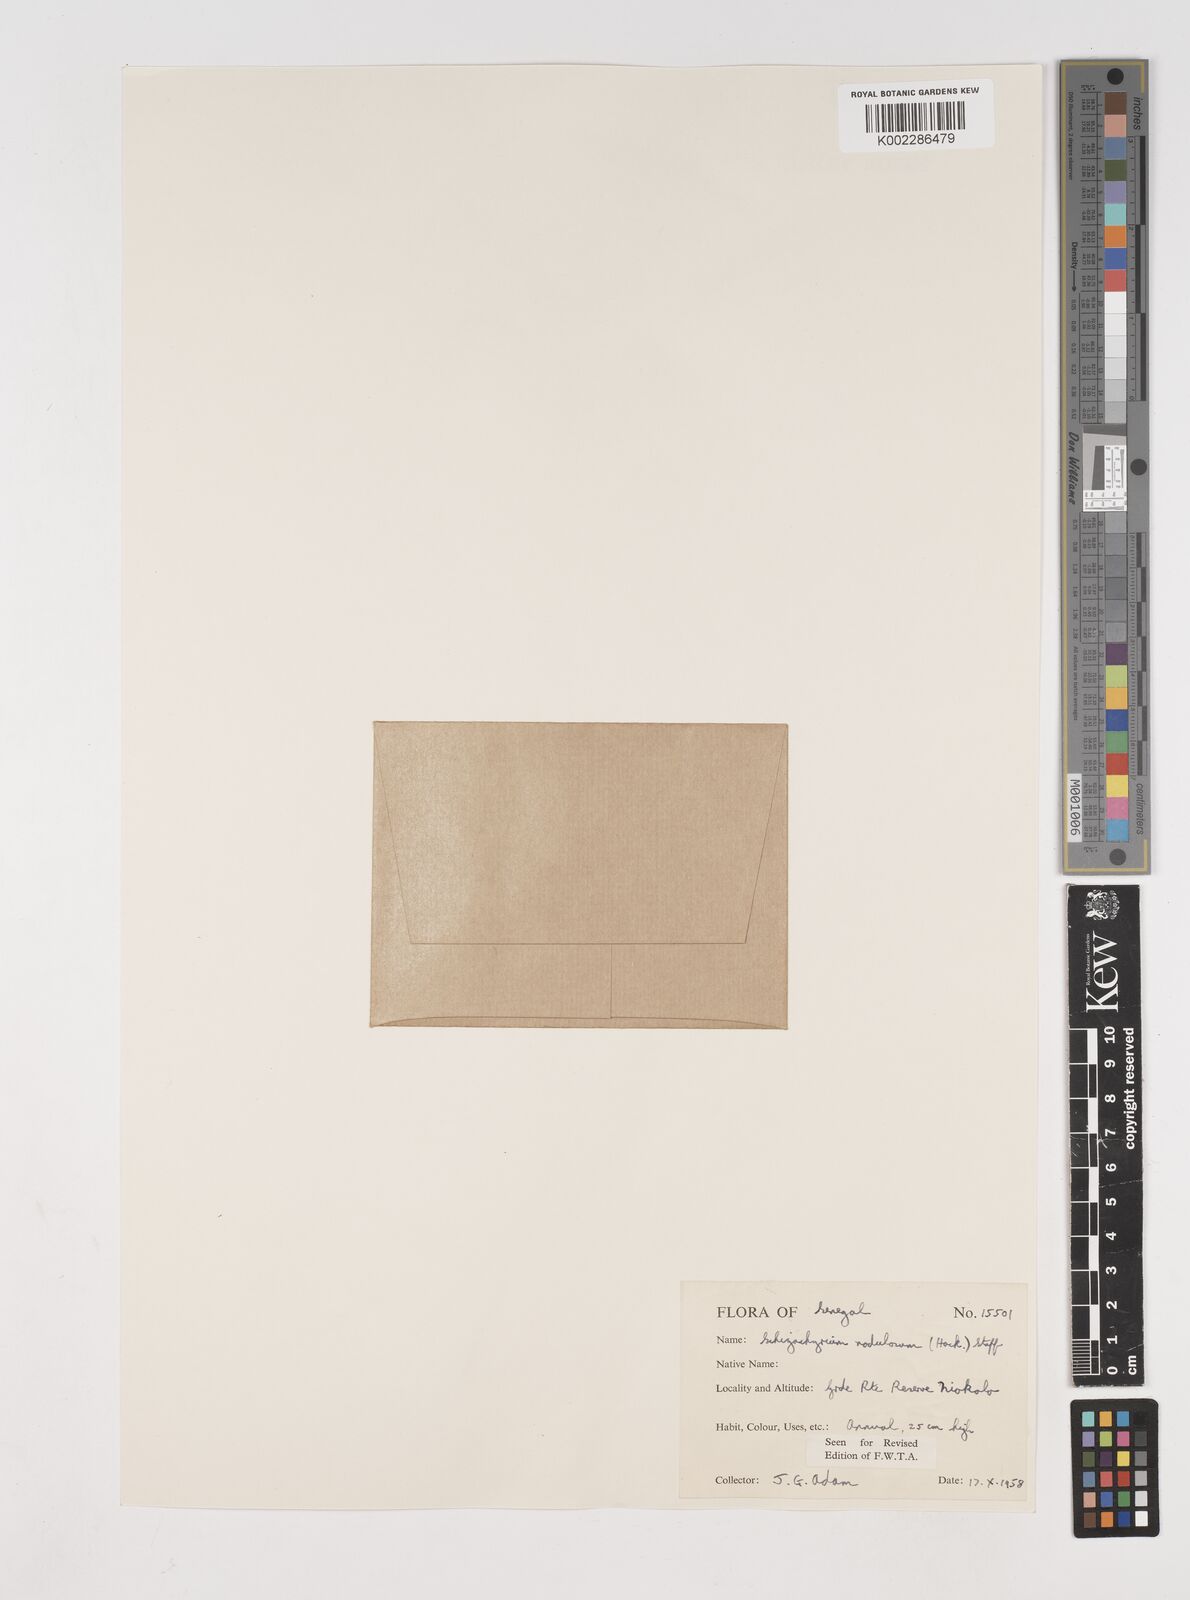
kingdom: Plantae
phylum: Tracheophyta
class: Liliopsida
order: Poales
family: Poaceae
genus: Schizachyrium
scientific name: Schizachyrium nodulosum
